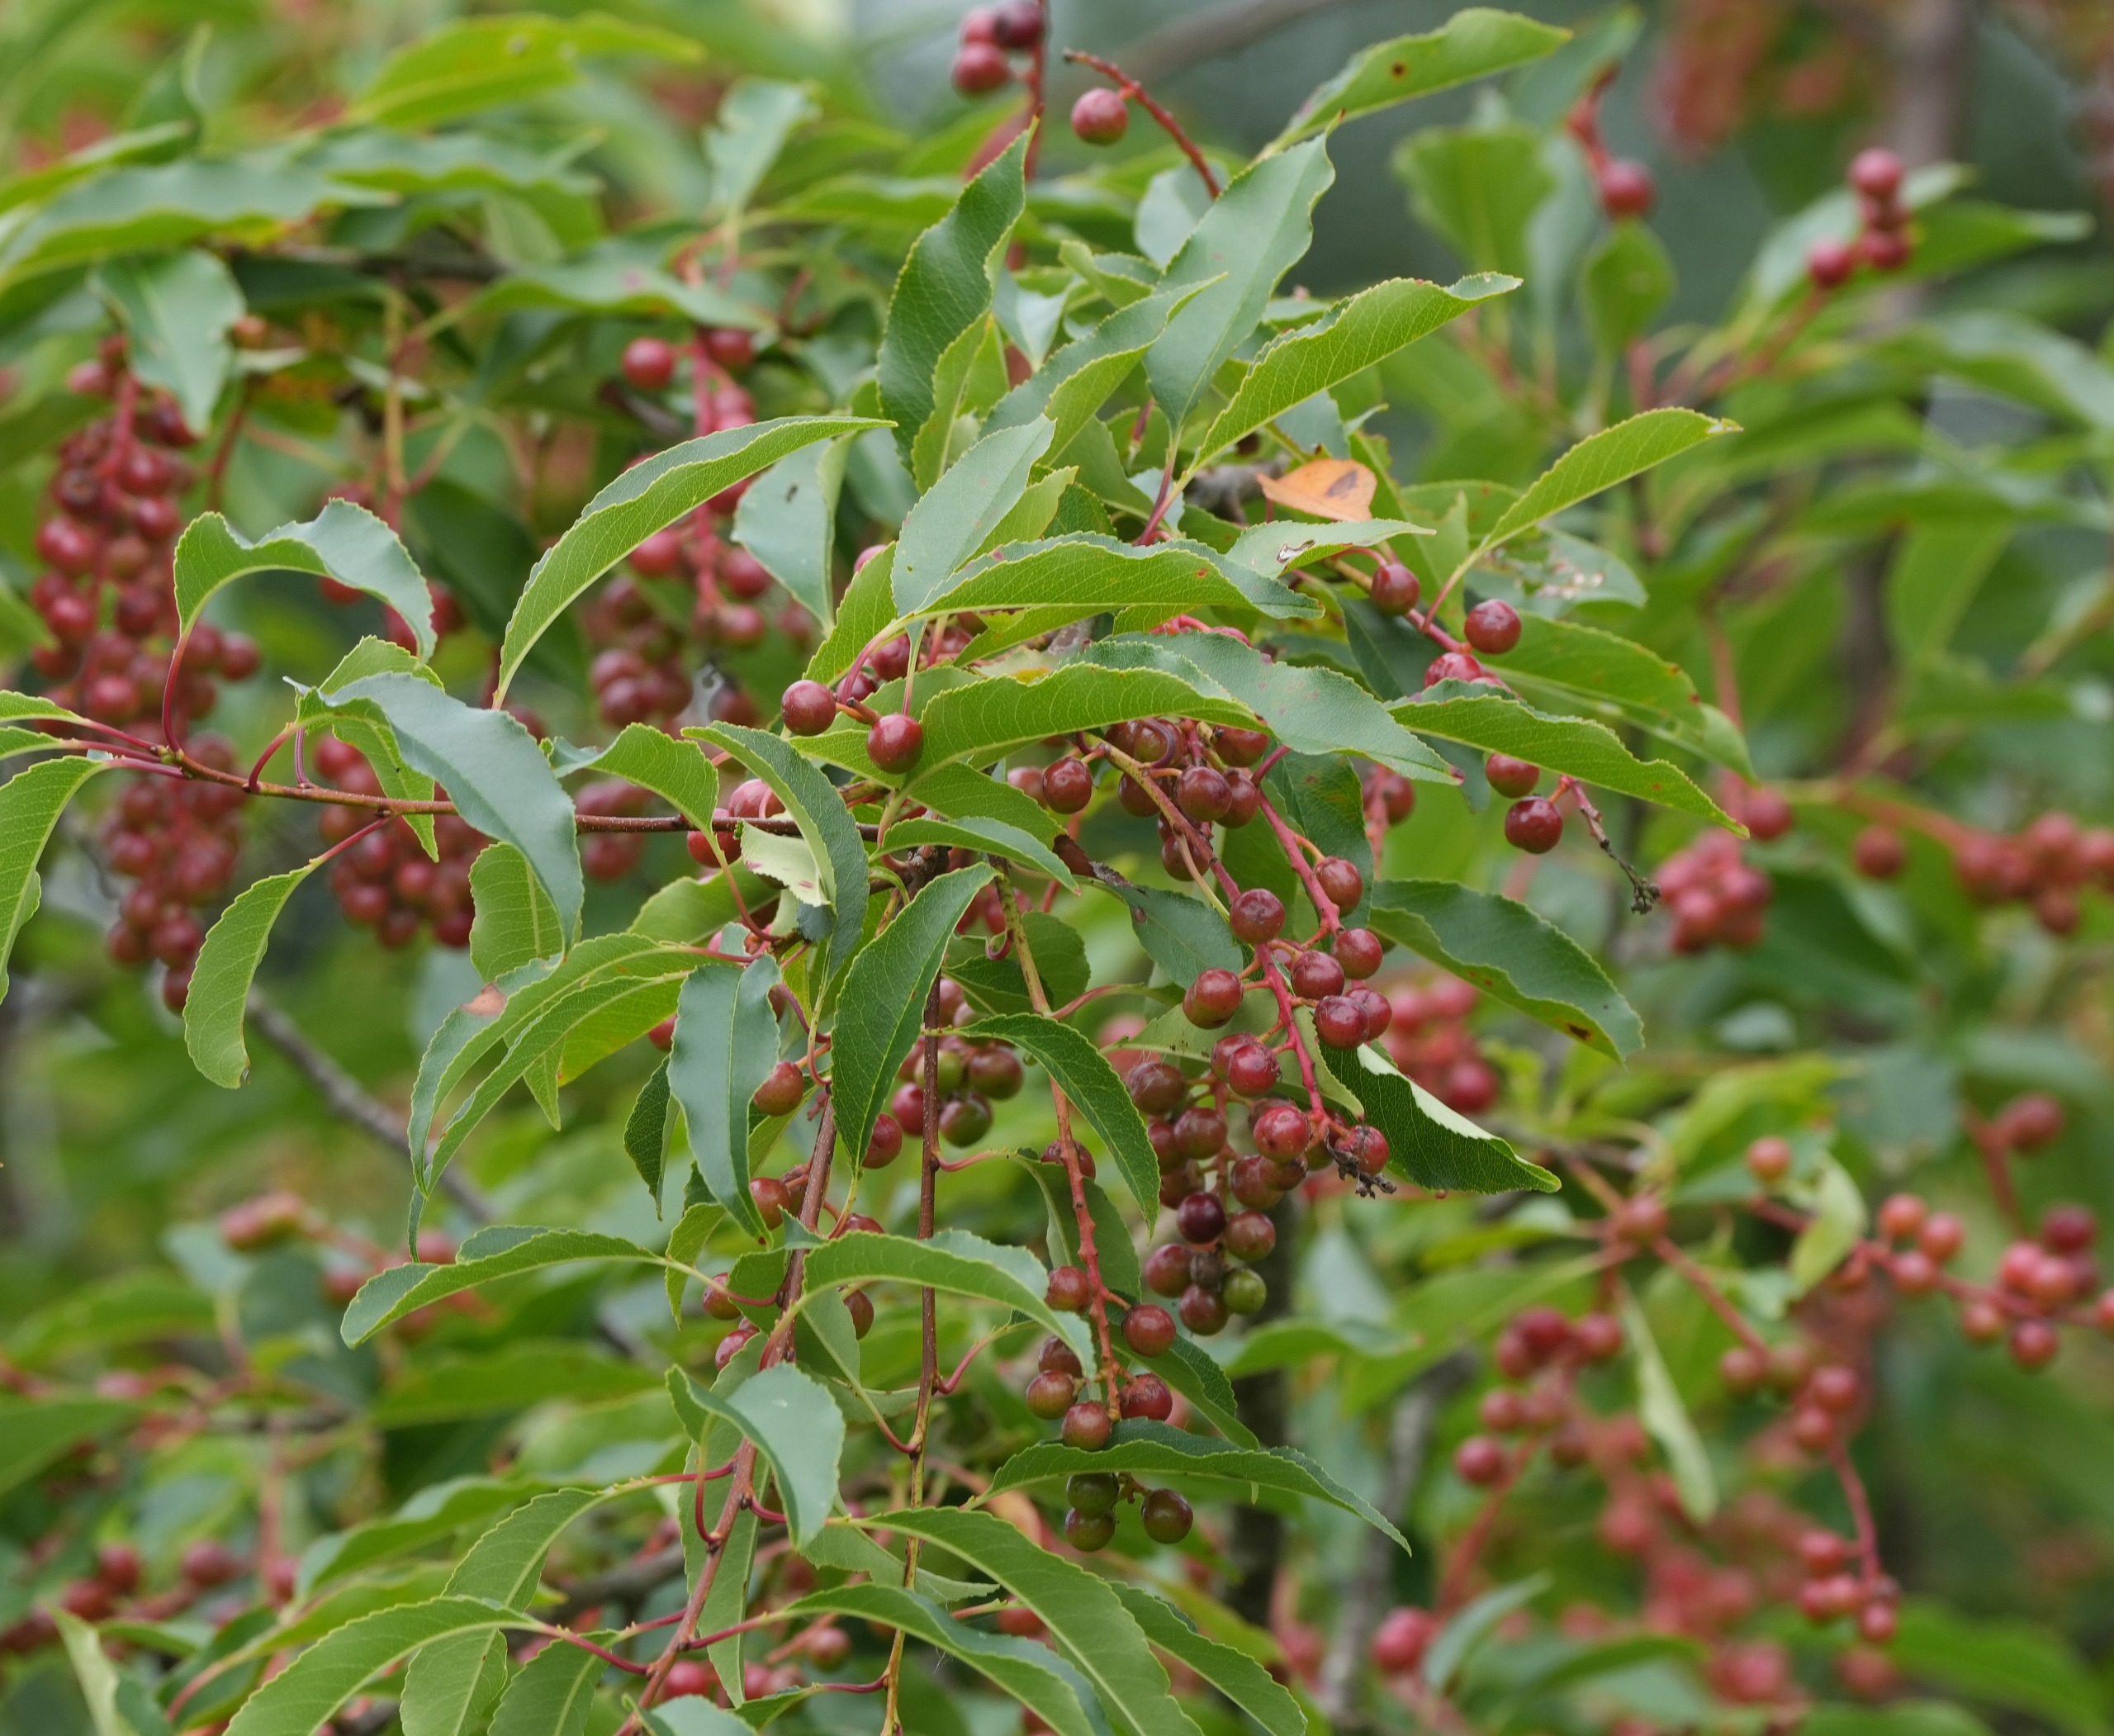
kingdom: Plantae
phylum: Tracheophyta
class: Magnoliopsida
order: Rosales
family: Rosaceae
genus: Prunus
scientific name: Prunus serotina
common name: Glansbladet hæg
